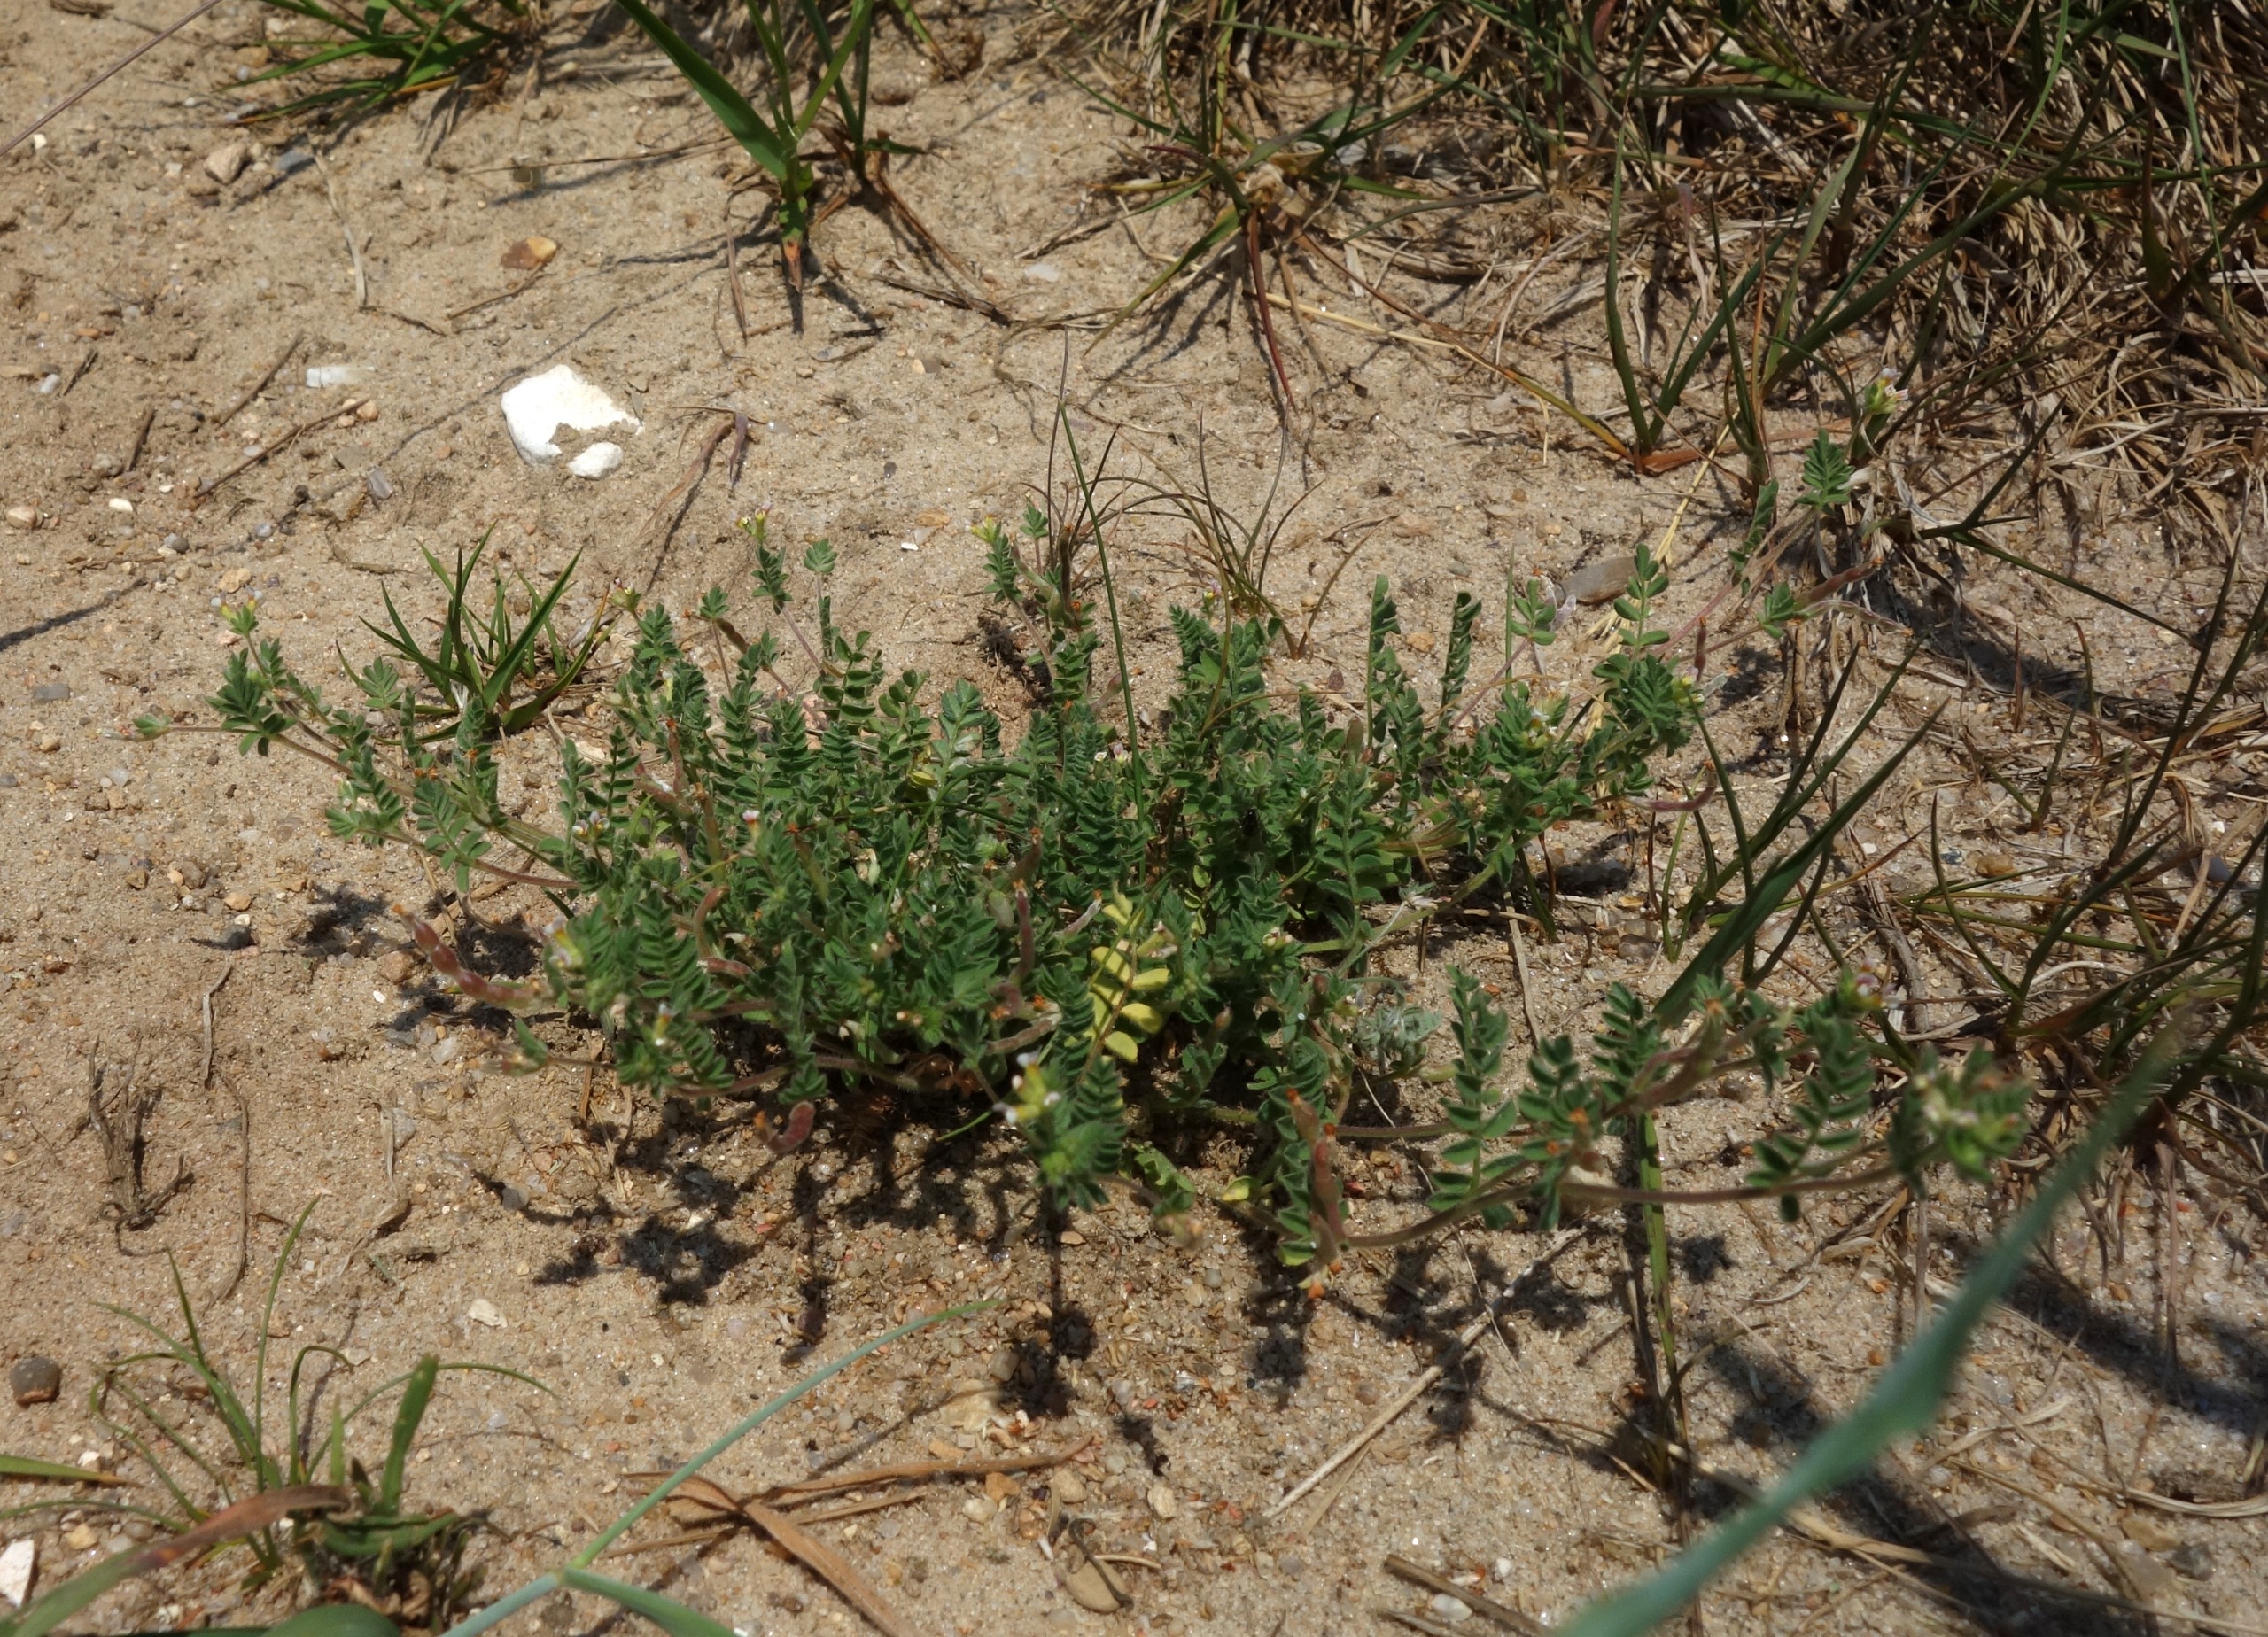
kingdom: Plantae
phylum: Tracheophyta
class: Magnoliopsida
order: Fabales
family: Fabaceae
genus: Ornithopus
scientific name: Ornithopus perpusillus
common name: Liden fugleklo
